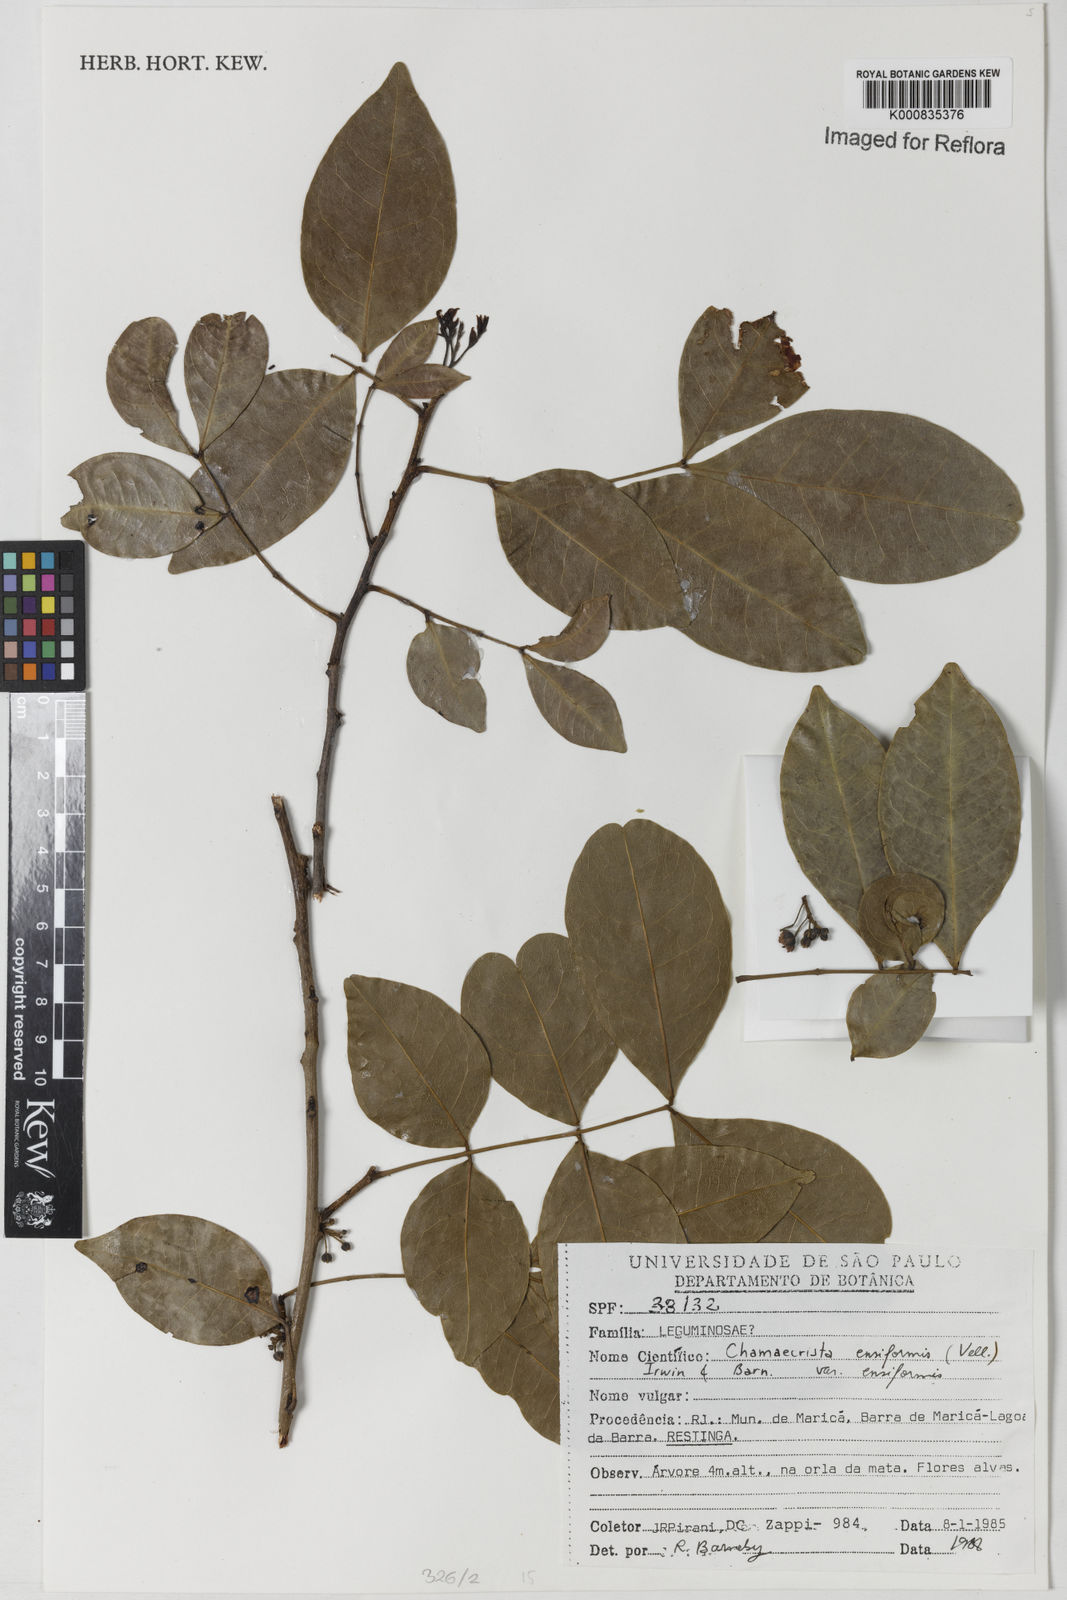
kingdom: Plantae
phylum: Tracheophyta
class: Magnoliopsida
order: Fabales
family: Fabaceae
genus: Chamaecrista
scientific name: Chamaecrista ensiformis
